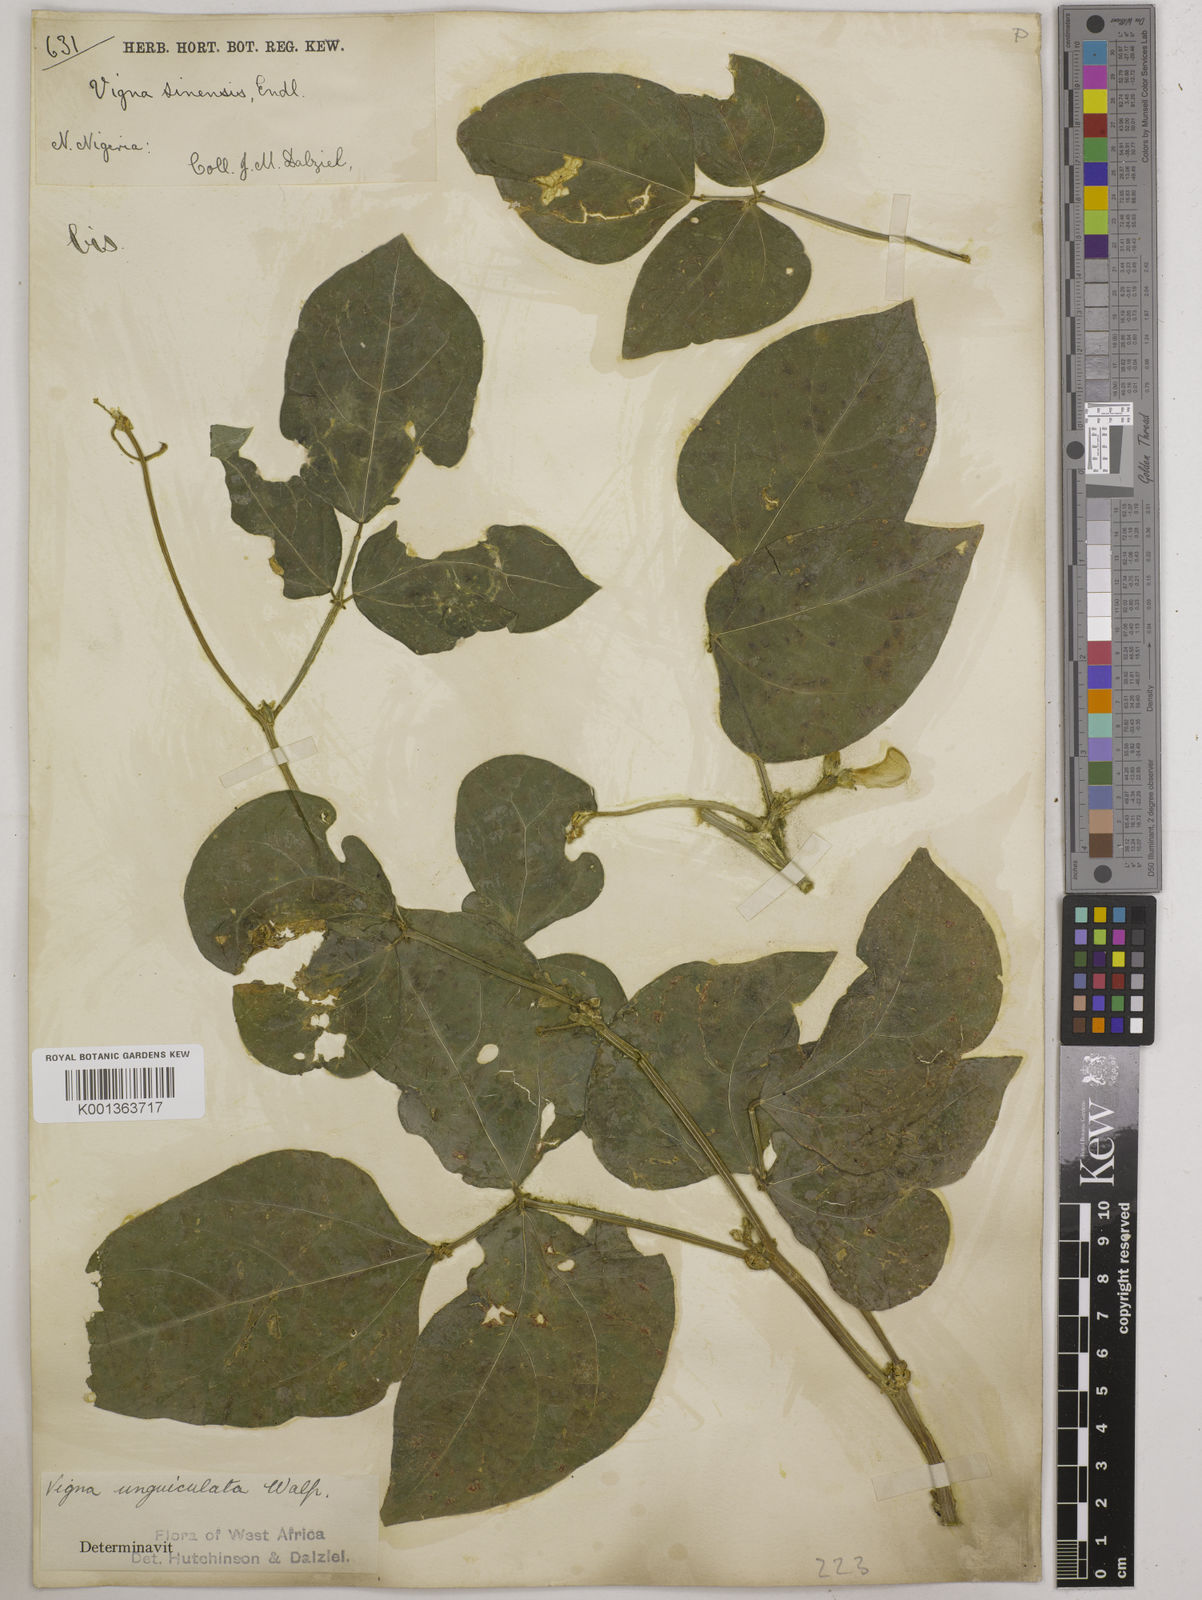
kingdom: Plantae
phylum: Tracheophyta
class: Magnoliopsida
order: Fabales
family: Fabaceae
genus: Vigna
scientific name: Vigna unguiculata
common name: Cowpea
